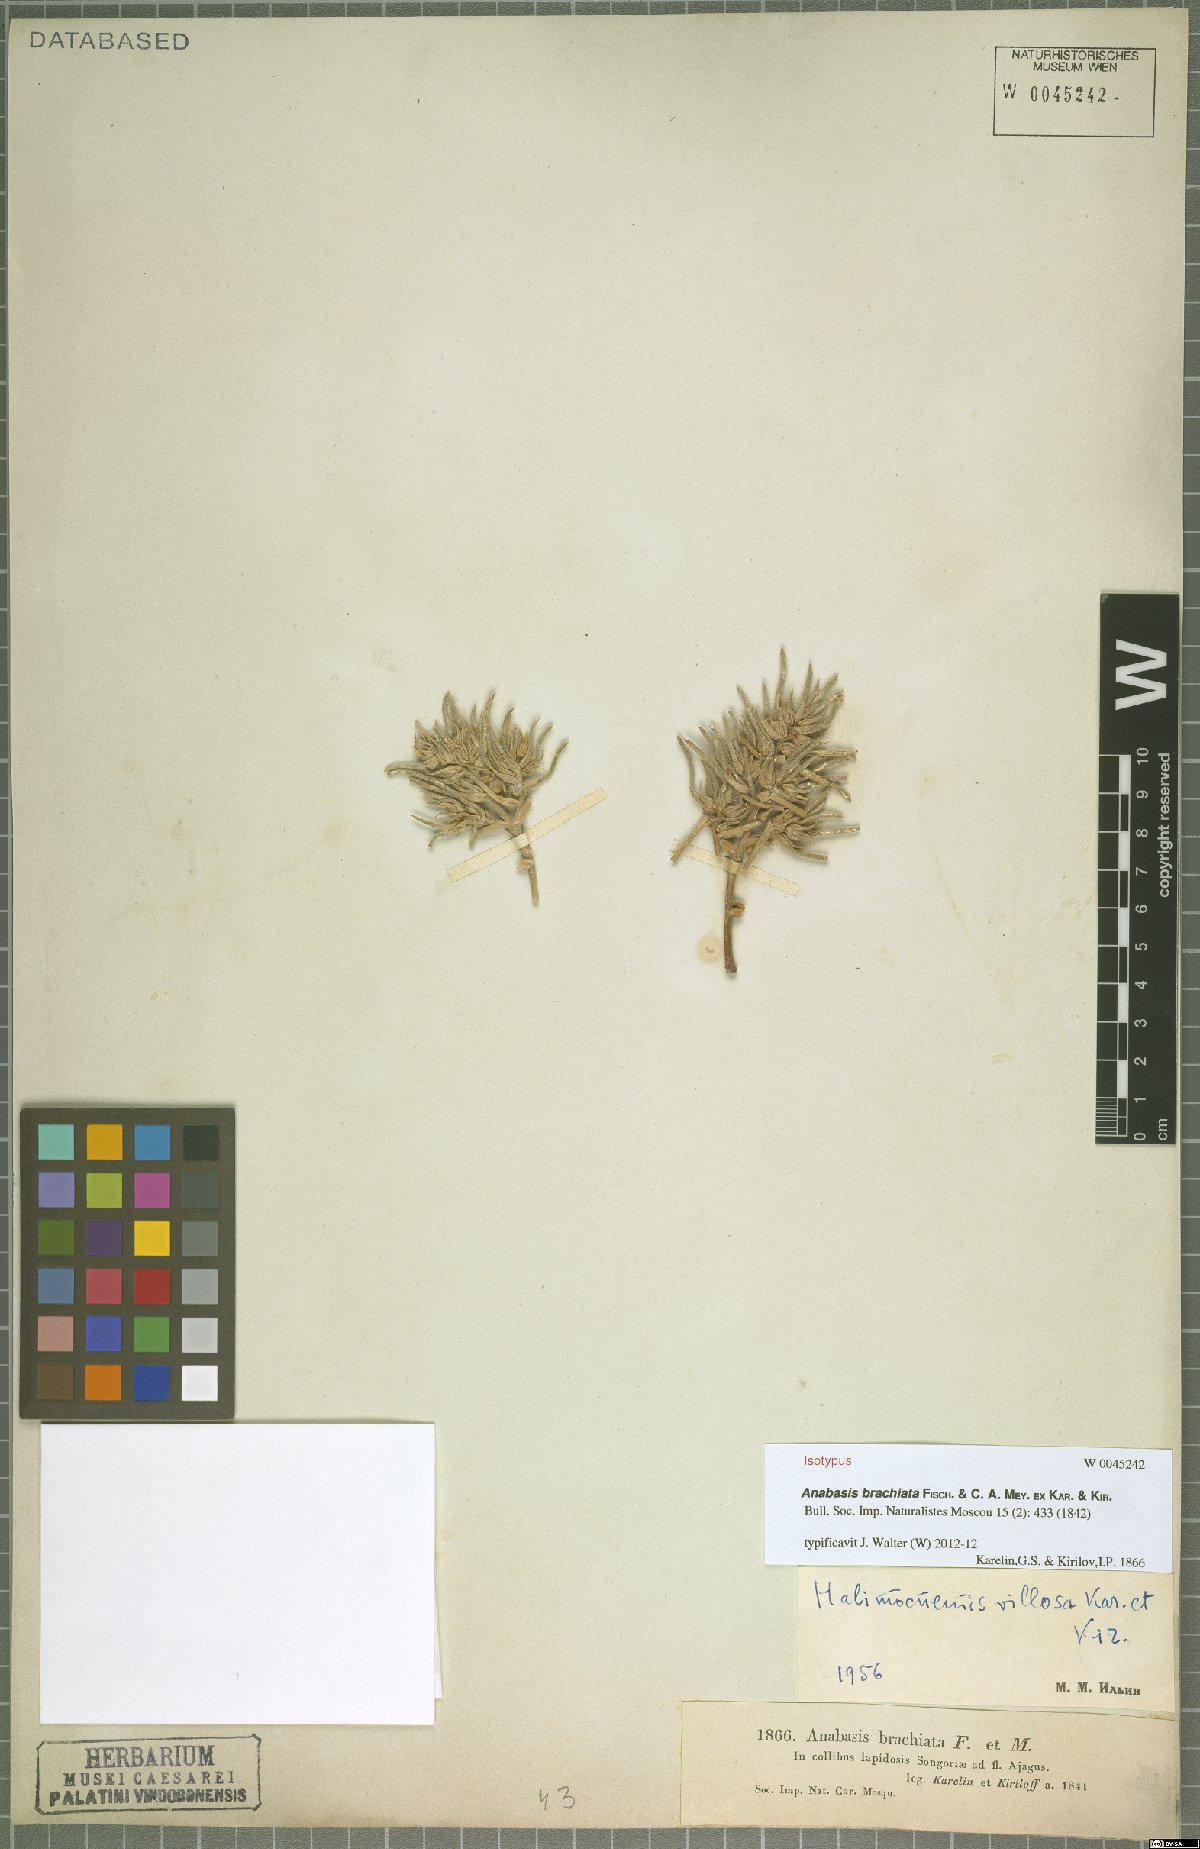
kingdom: Plantae
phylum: Tracheophyta
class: Magnoliopsida
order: Caryophyllales
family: Amaranthaceae
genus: Anabasis
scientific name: Anabasis brachiata
